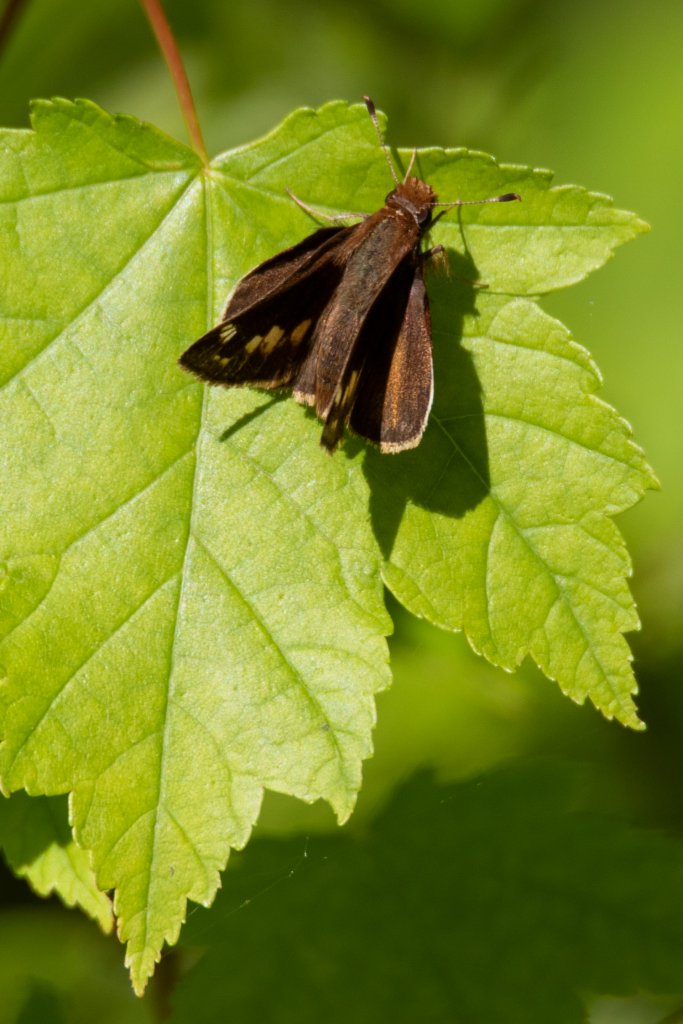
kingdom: Animalia
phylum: Arthropoda
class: Insecta
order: Lepidoptera
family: Hesperiidae
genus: Lon
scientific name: Lon zabulon
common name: Zabulon Skipper
